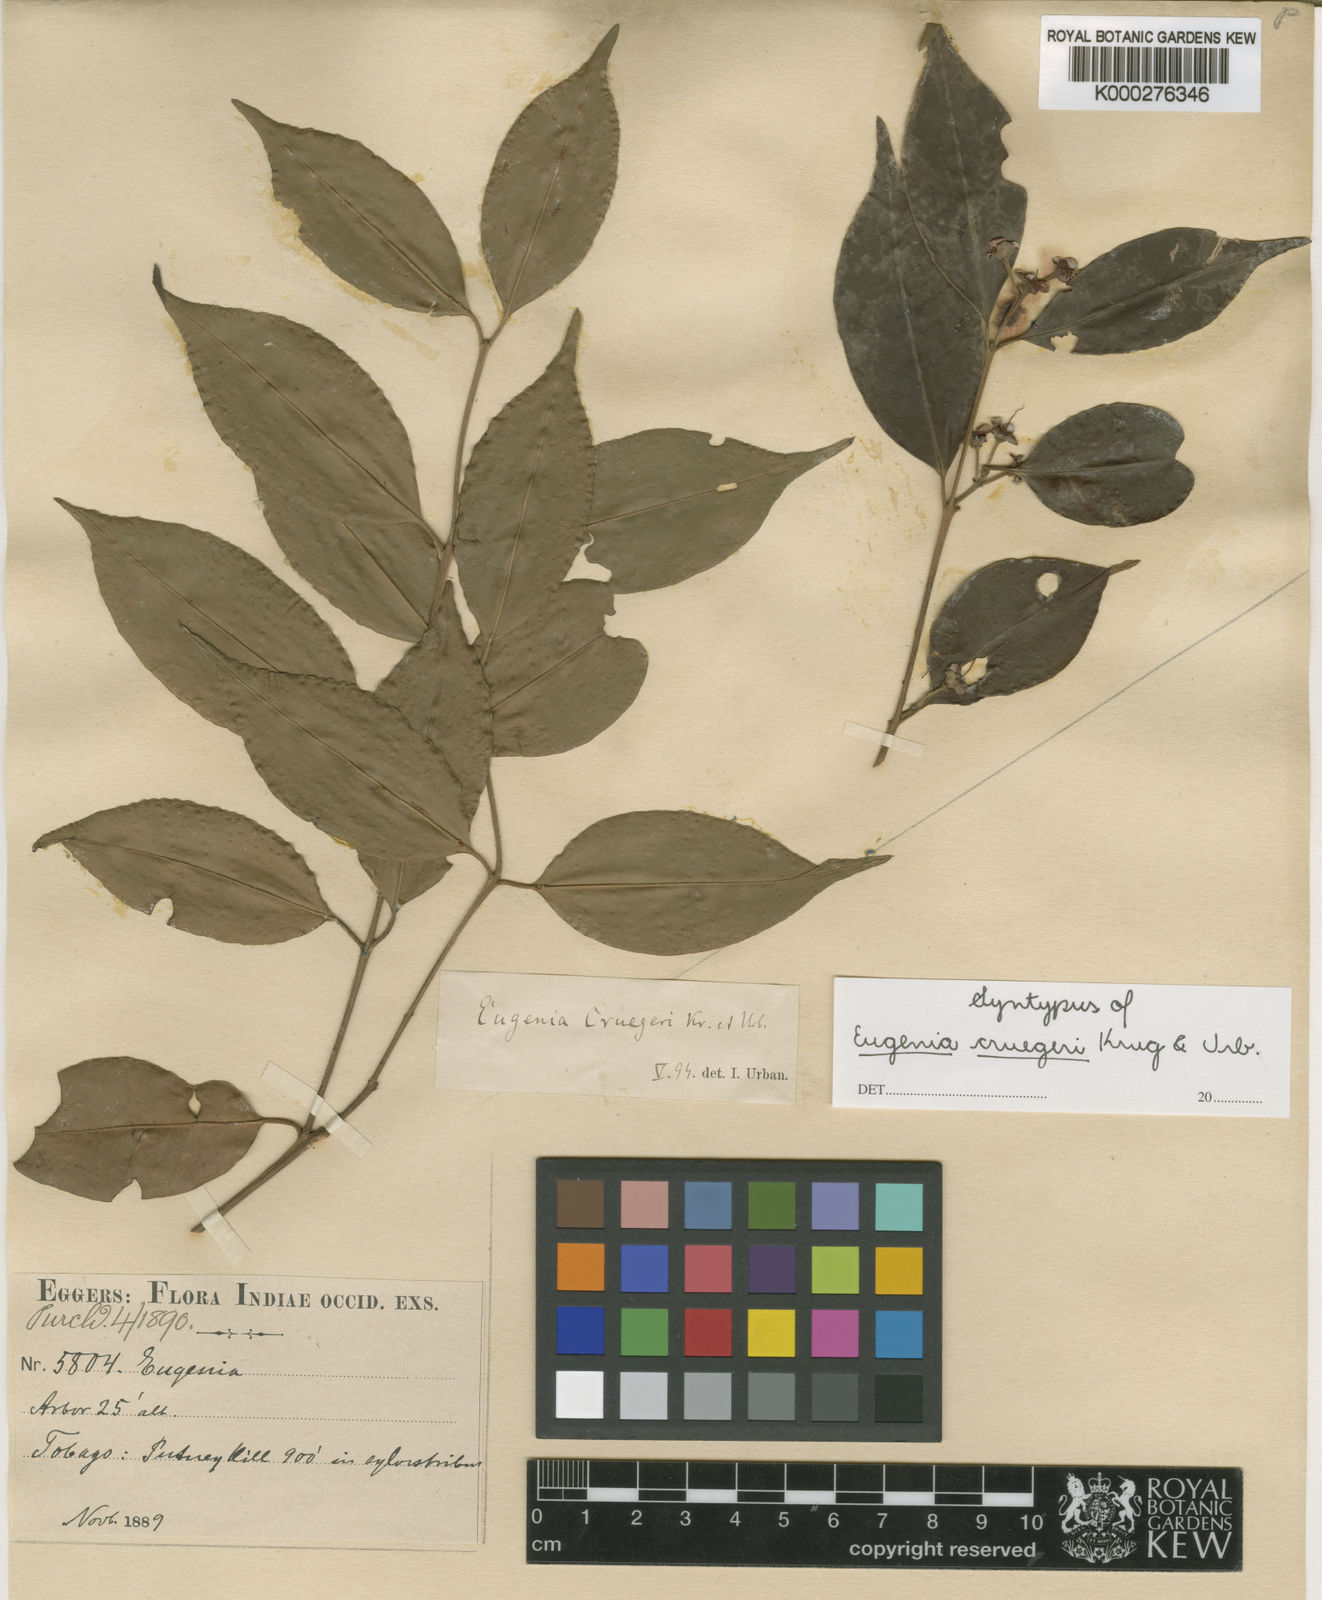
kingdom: Plantae
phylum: Tracheophyta
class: Magnoliopsida
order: Myrtales
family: Myrtaceae
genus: Eugenia
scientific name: Eugenia
